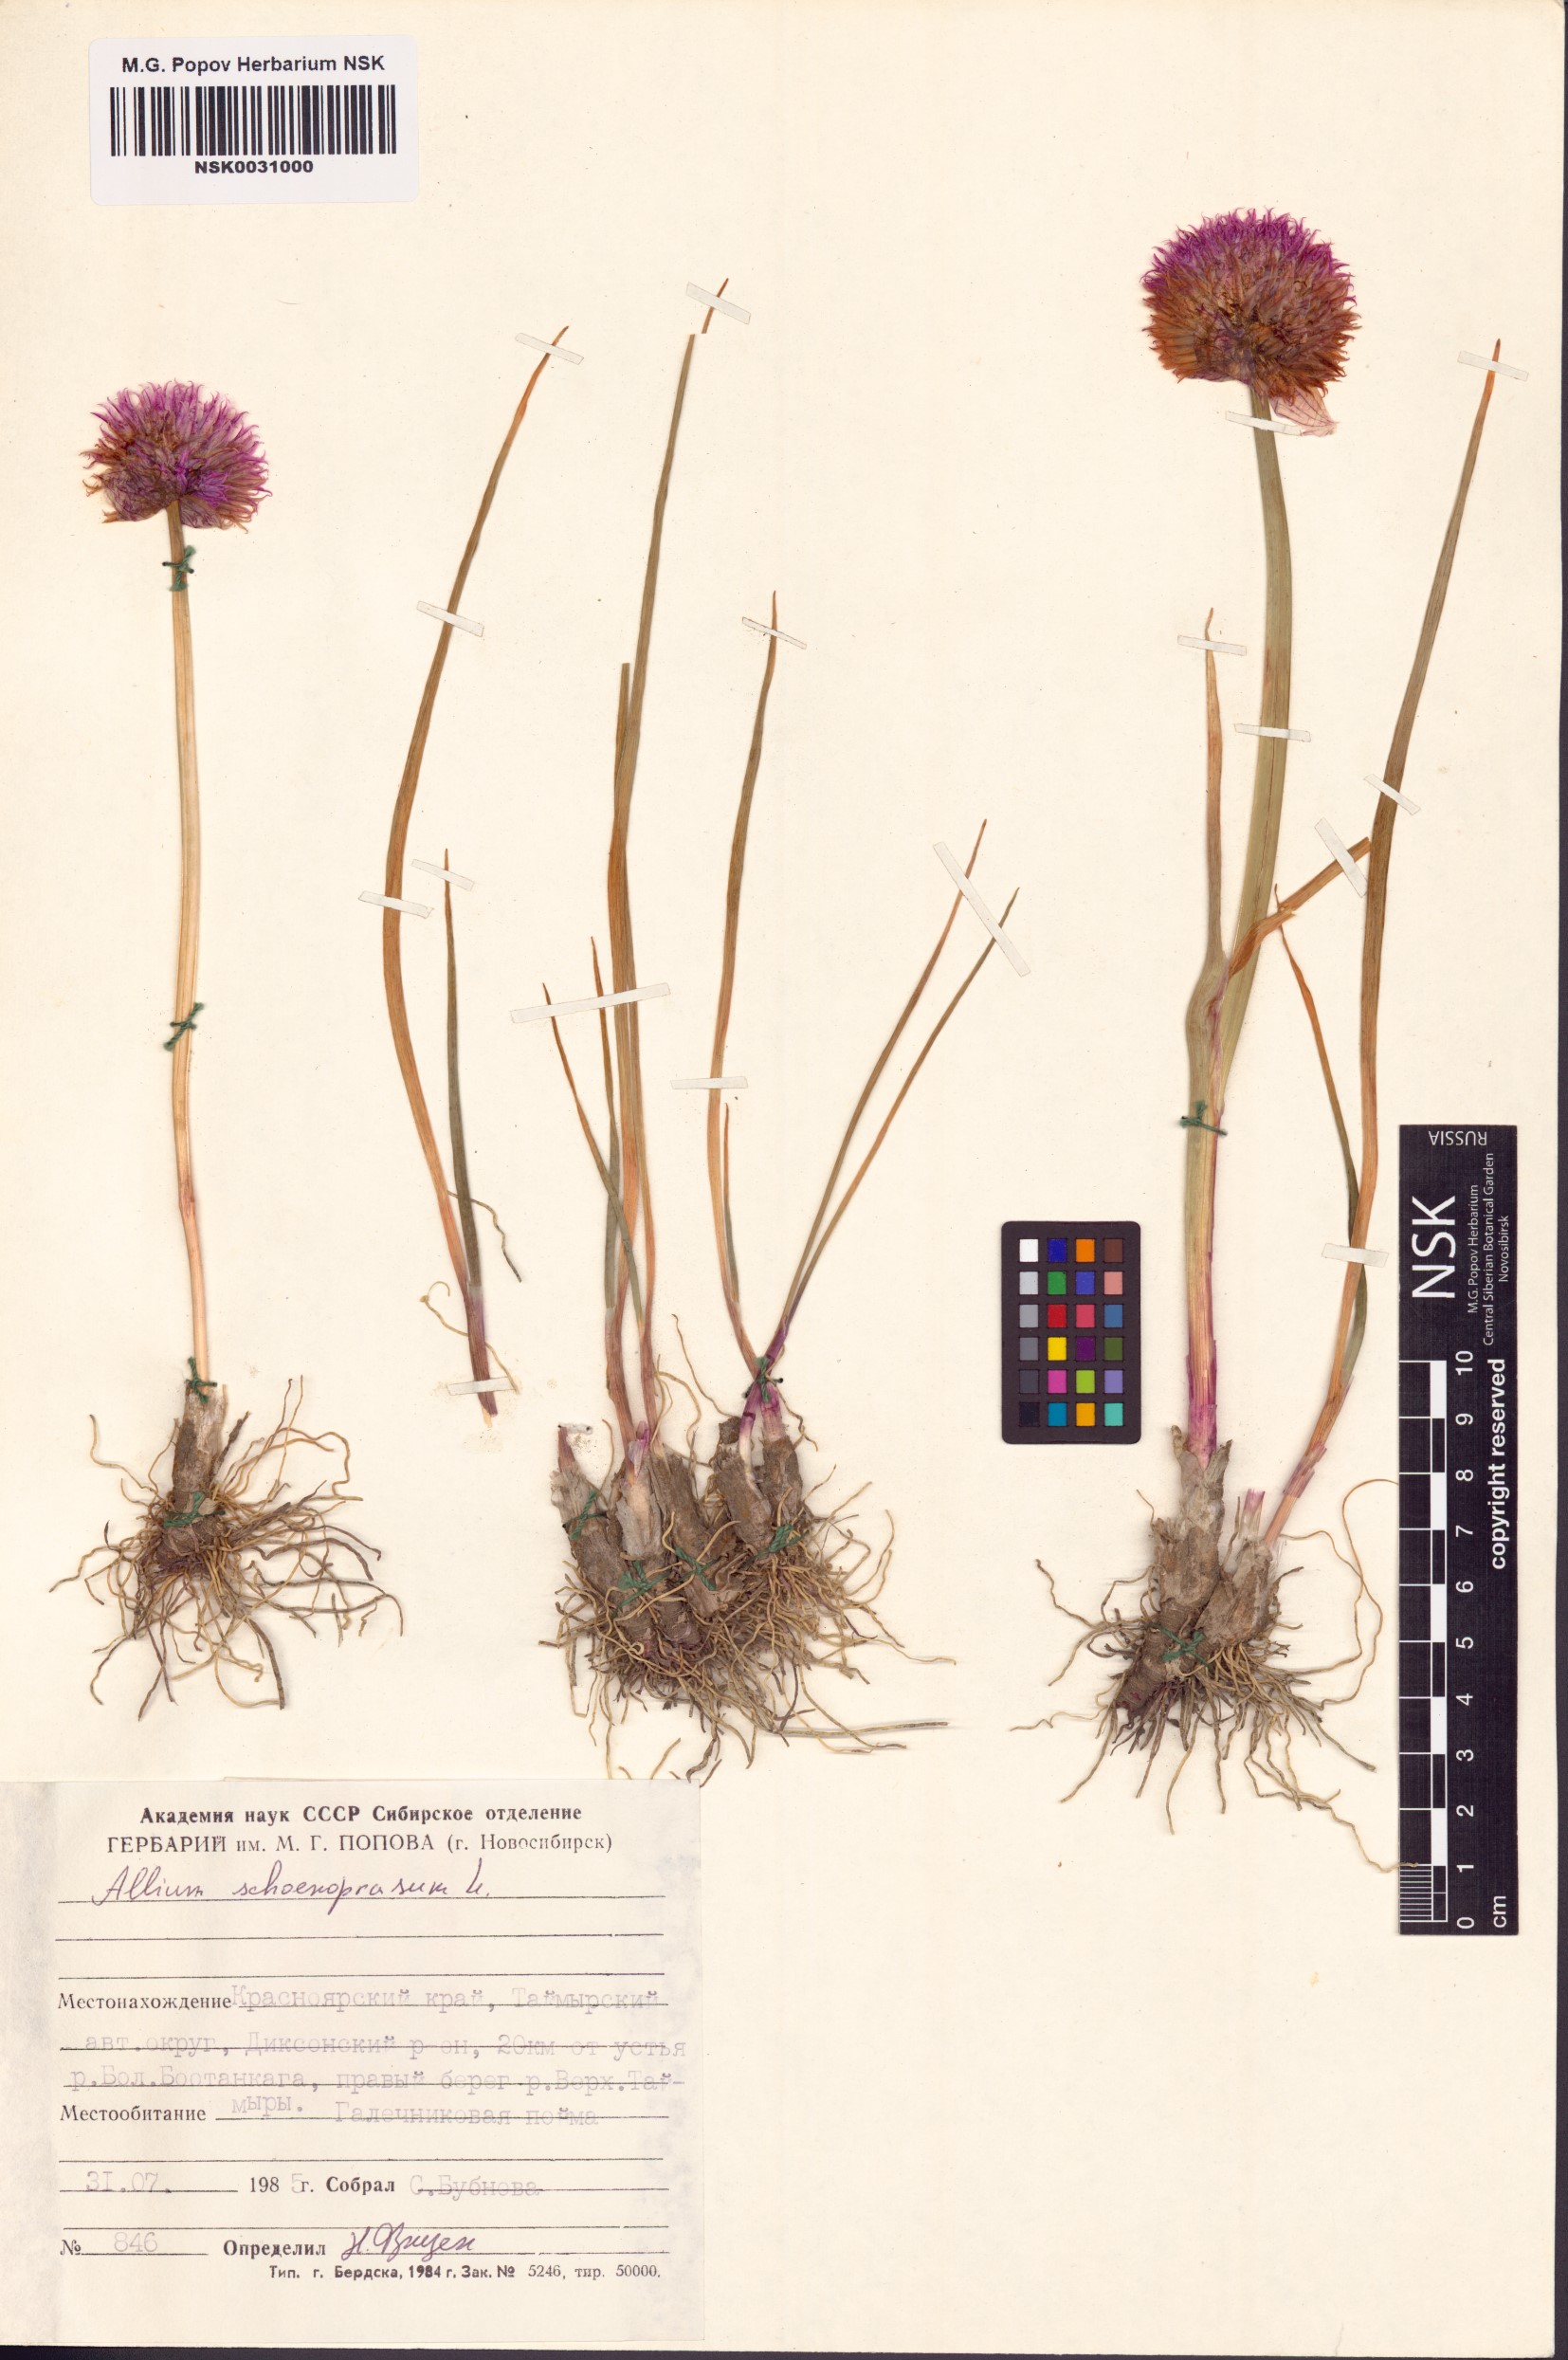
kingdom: Plantae
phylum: Tracheophyta
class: Liliopsida
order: Asparagales
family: Amaryllidaceae
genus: Allium
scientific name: Allium schoenoprasum
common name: Chives
